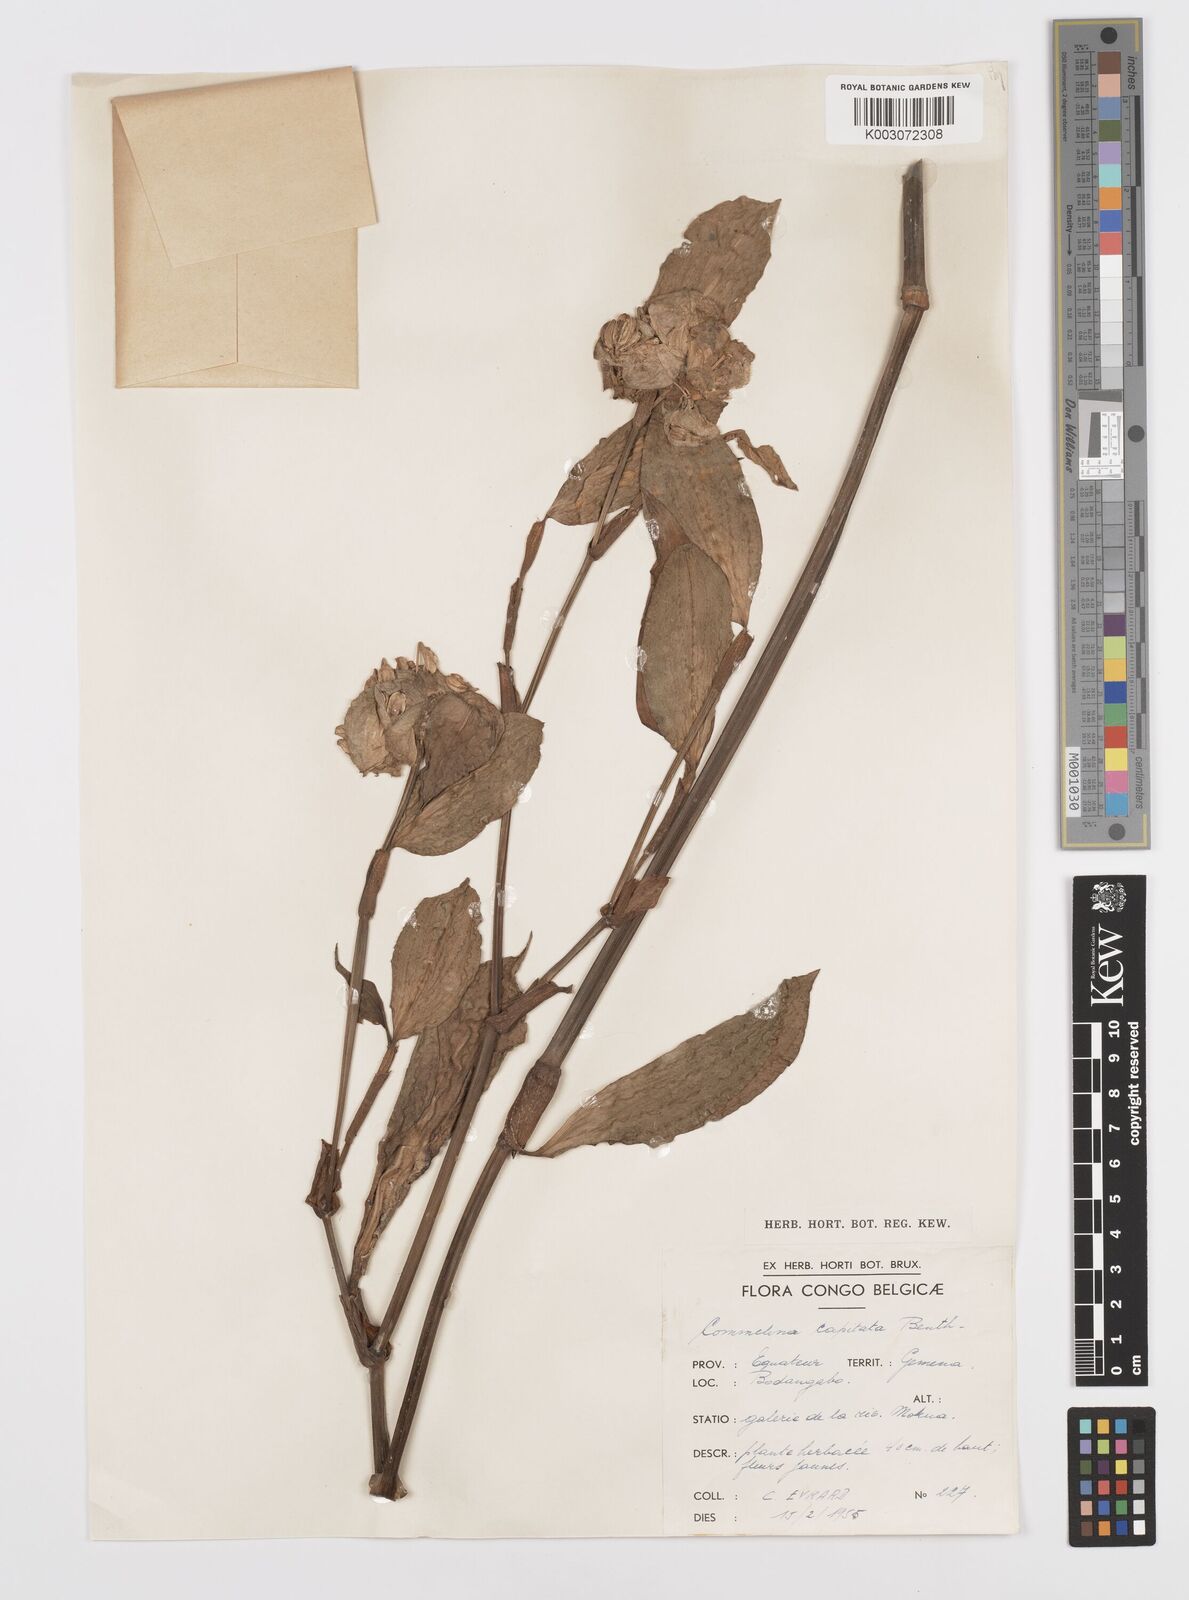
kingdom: Plantae
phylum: Tracheophyta
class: Liliopsida
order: Commelinales
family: Commelinaceae
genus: Commelina
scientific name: Commelina capitata
